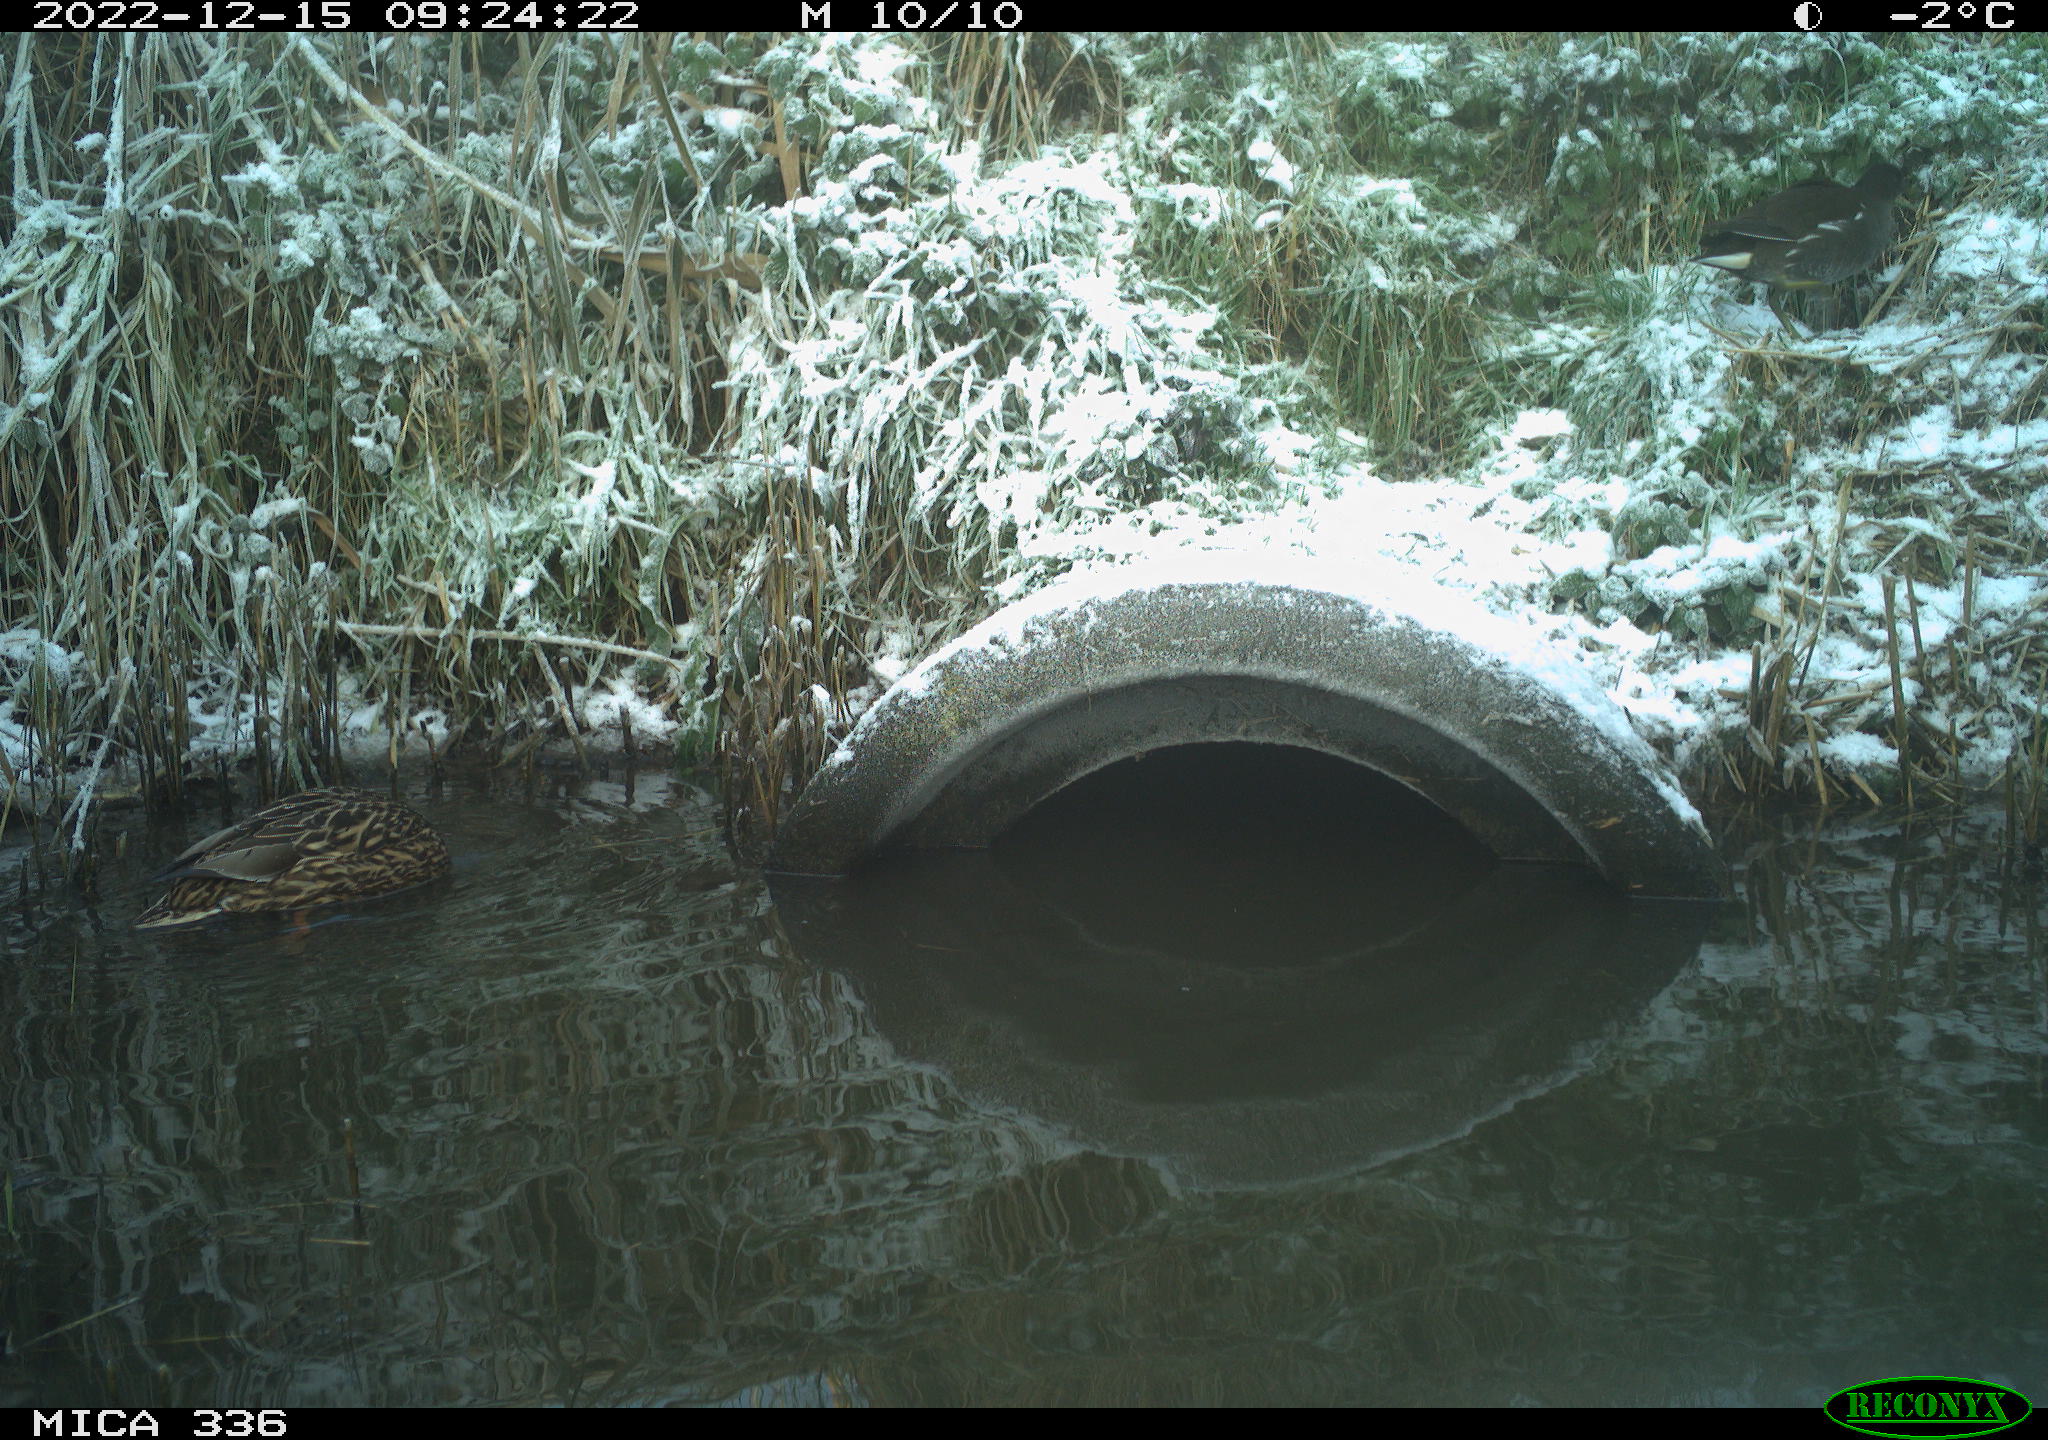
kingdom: Animalia
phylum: Chordata
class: Aves
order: Gruiformes
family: Rallidae
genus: Gallinula
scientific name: Gallinula chloropus
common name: Common moorhen
